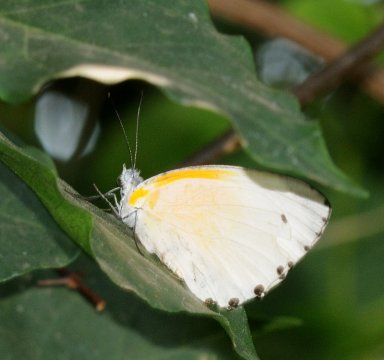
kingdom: Animalia
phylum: Arthropoda
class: Insecta
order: Lepidoptera
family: Pieridae
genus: Mylothris
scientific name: Mylothris rueppellii
